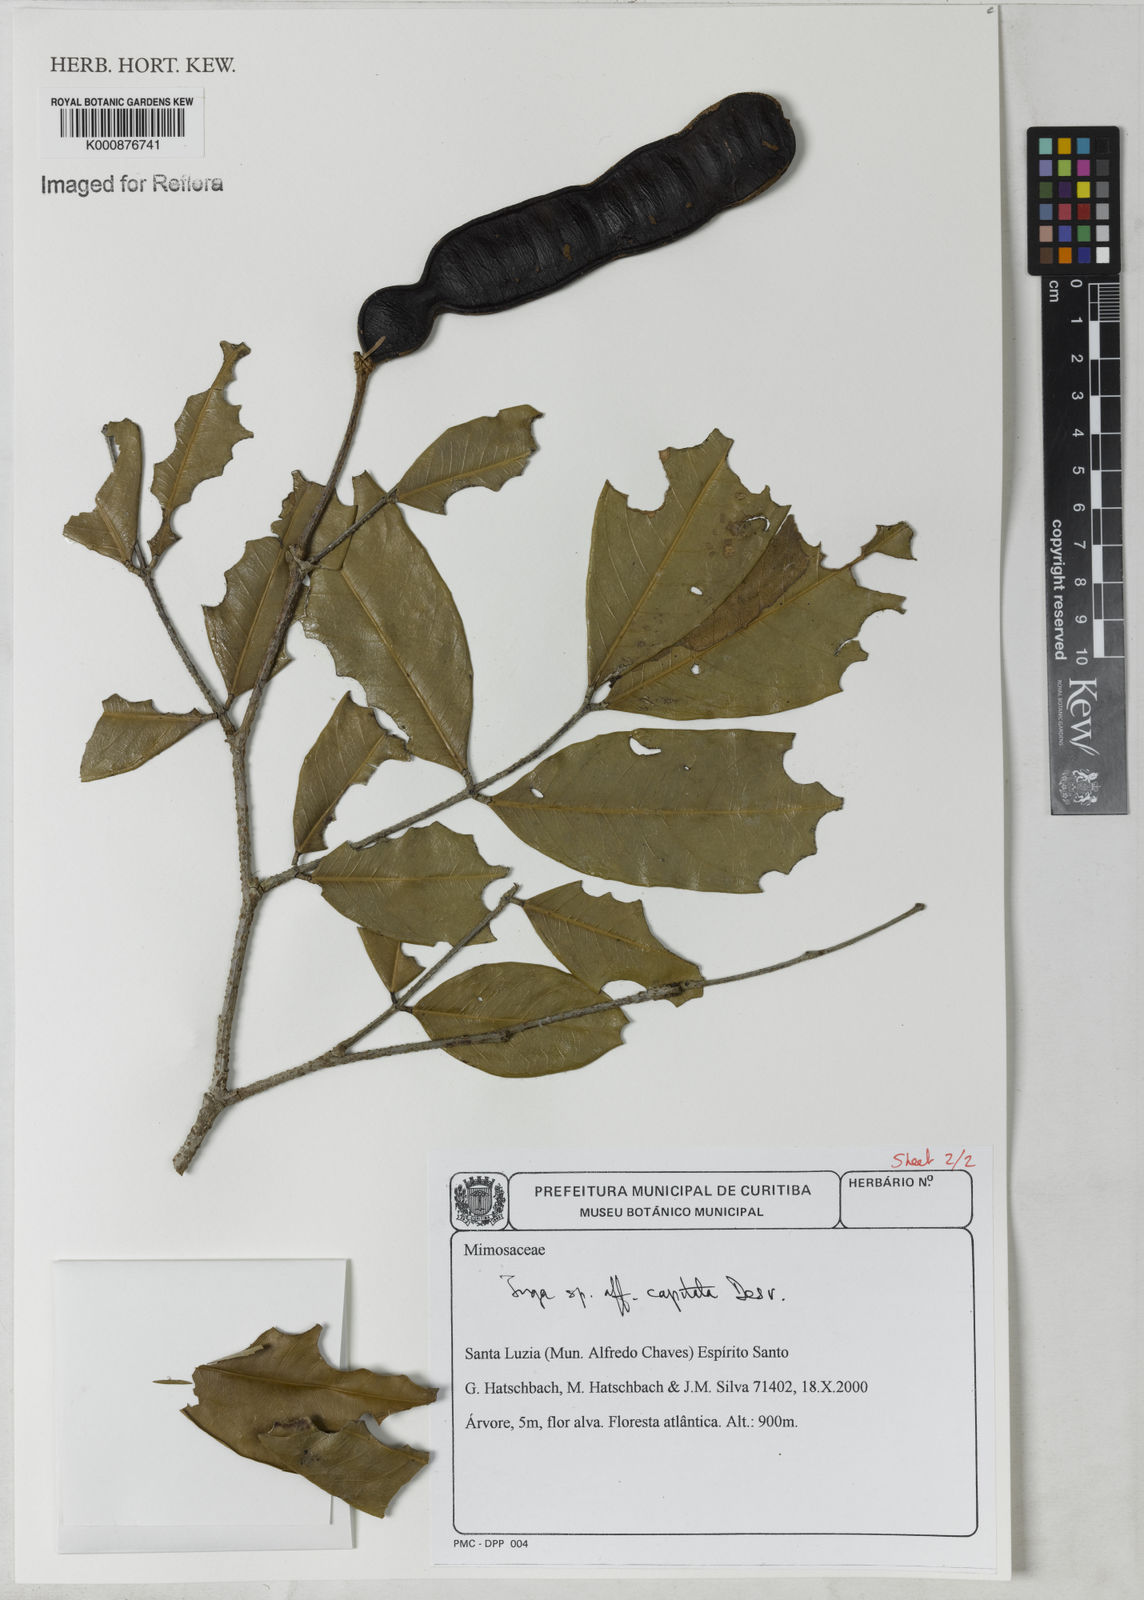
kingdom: Plantae
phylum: Tracheophyta
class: Magnoliopsida
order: Fabales
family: Fabaceae
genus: Inga
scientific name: Inga capitata
